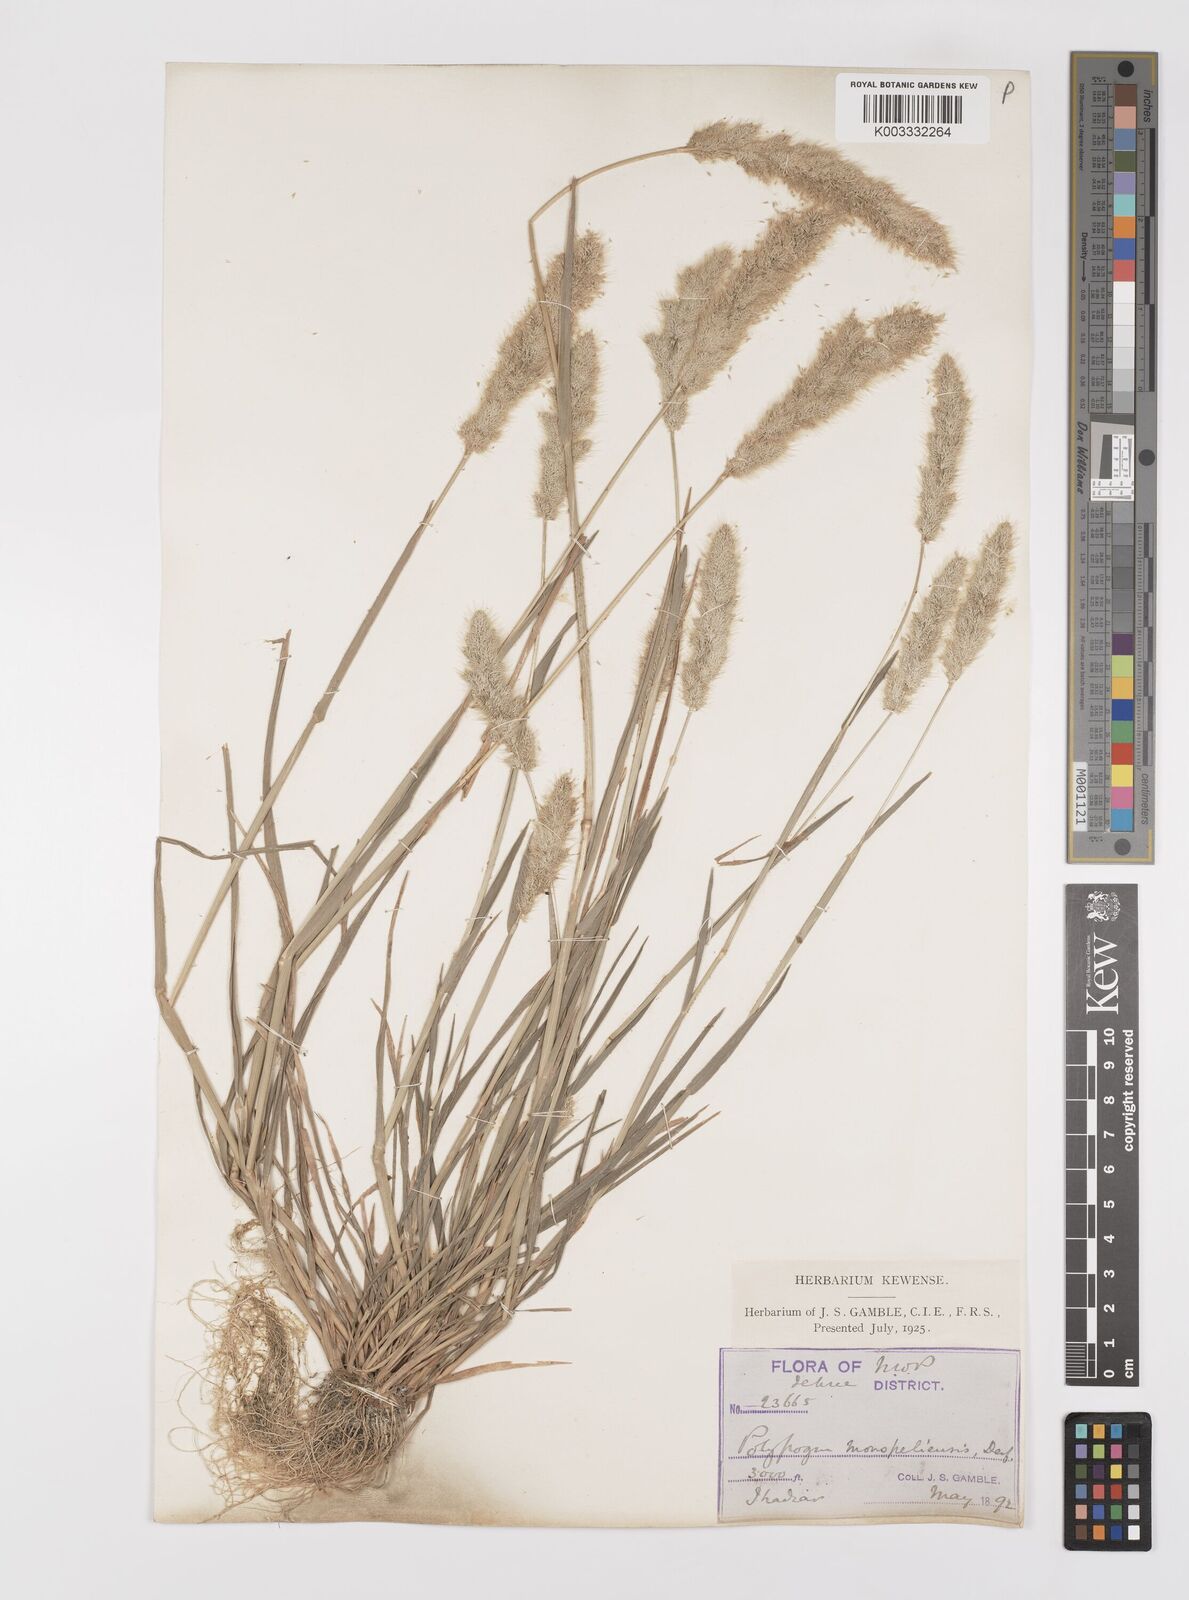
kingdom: Plantae
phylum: Tracheophyta
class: Liliopsida
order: Poales
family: Poaceae
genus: Polypogon
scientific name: Polypogon monspeliensis
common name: Annual rabbitsfoot grass
